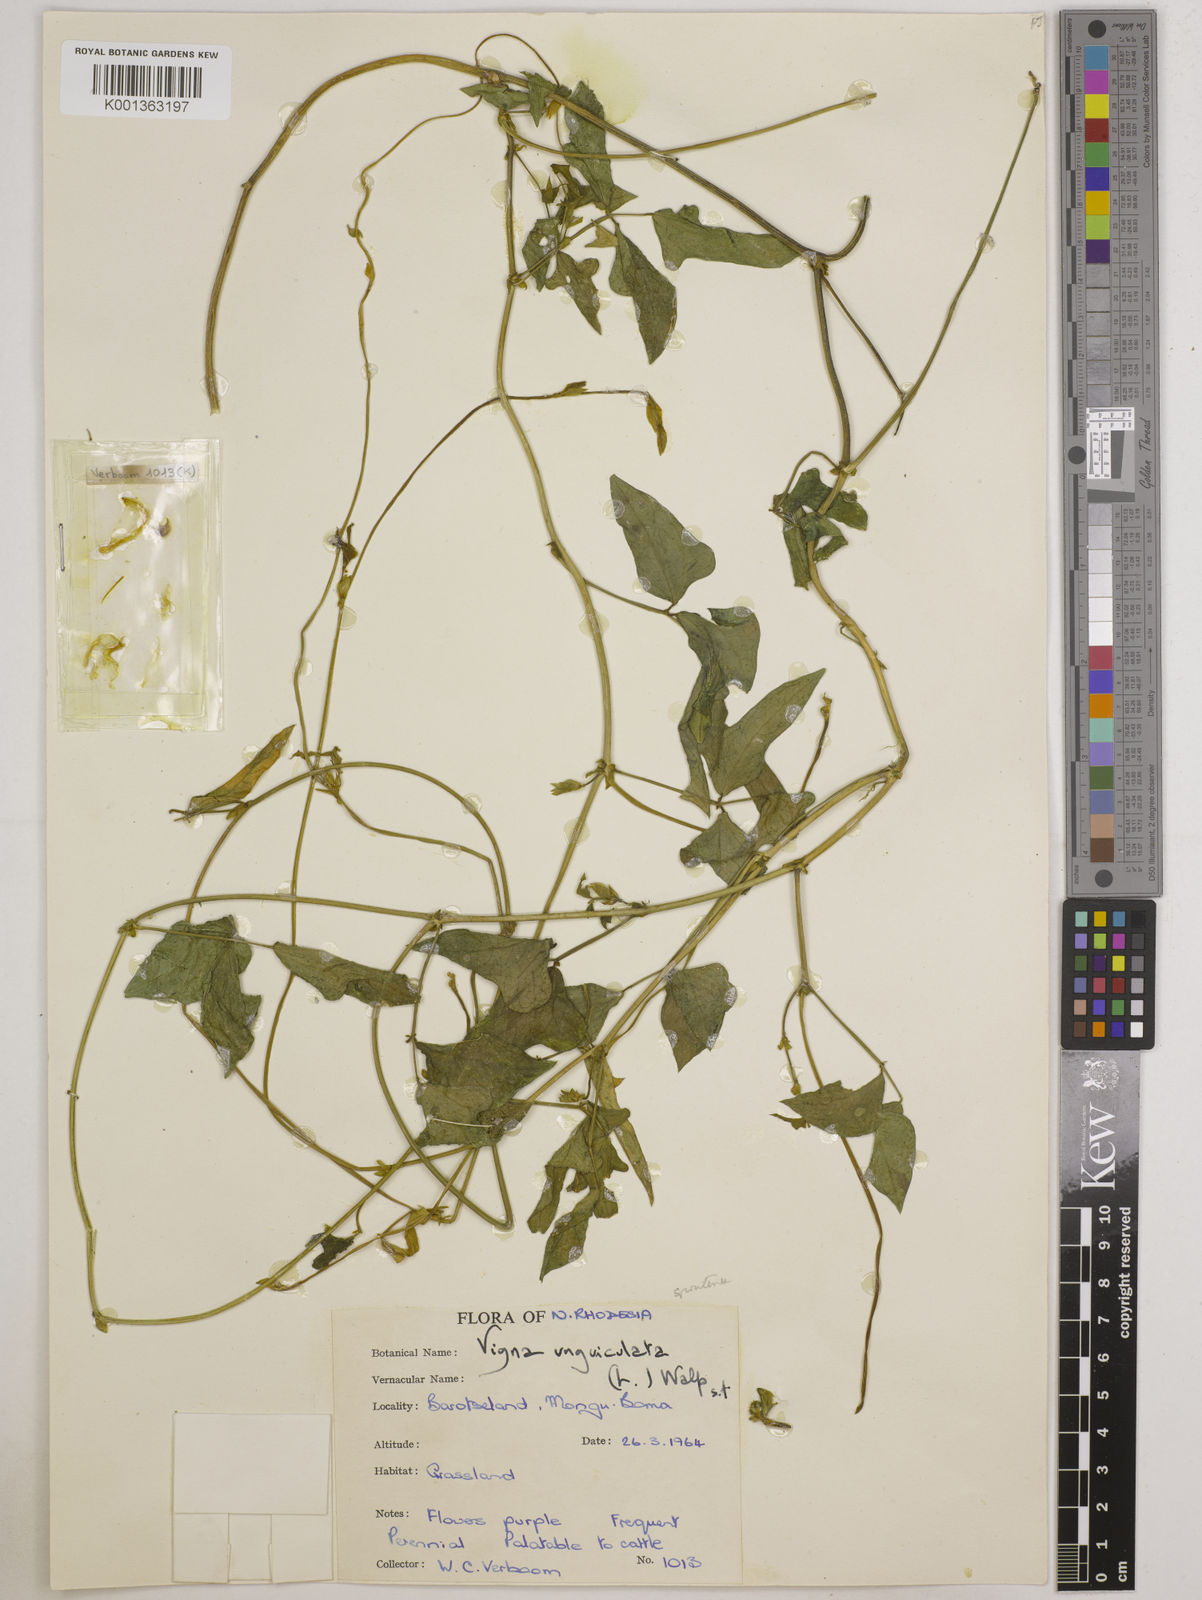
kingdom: Plantae
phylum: Tracheophyta
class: Magnoliopsida
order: Fabales
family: Fabaceae
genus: Vigna
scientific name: Vigna unguiculata
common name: Cowpea
